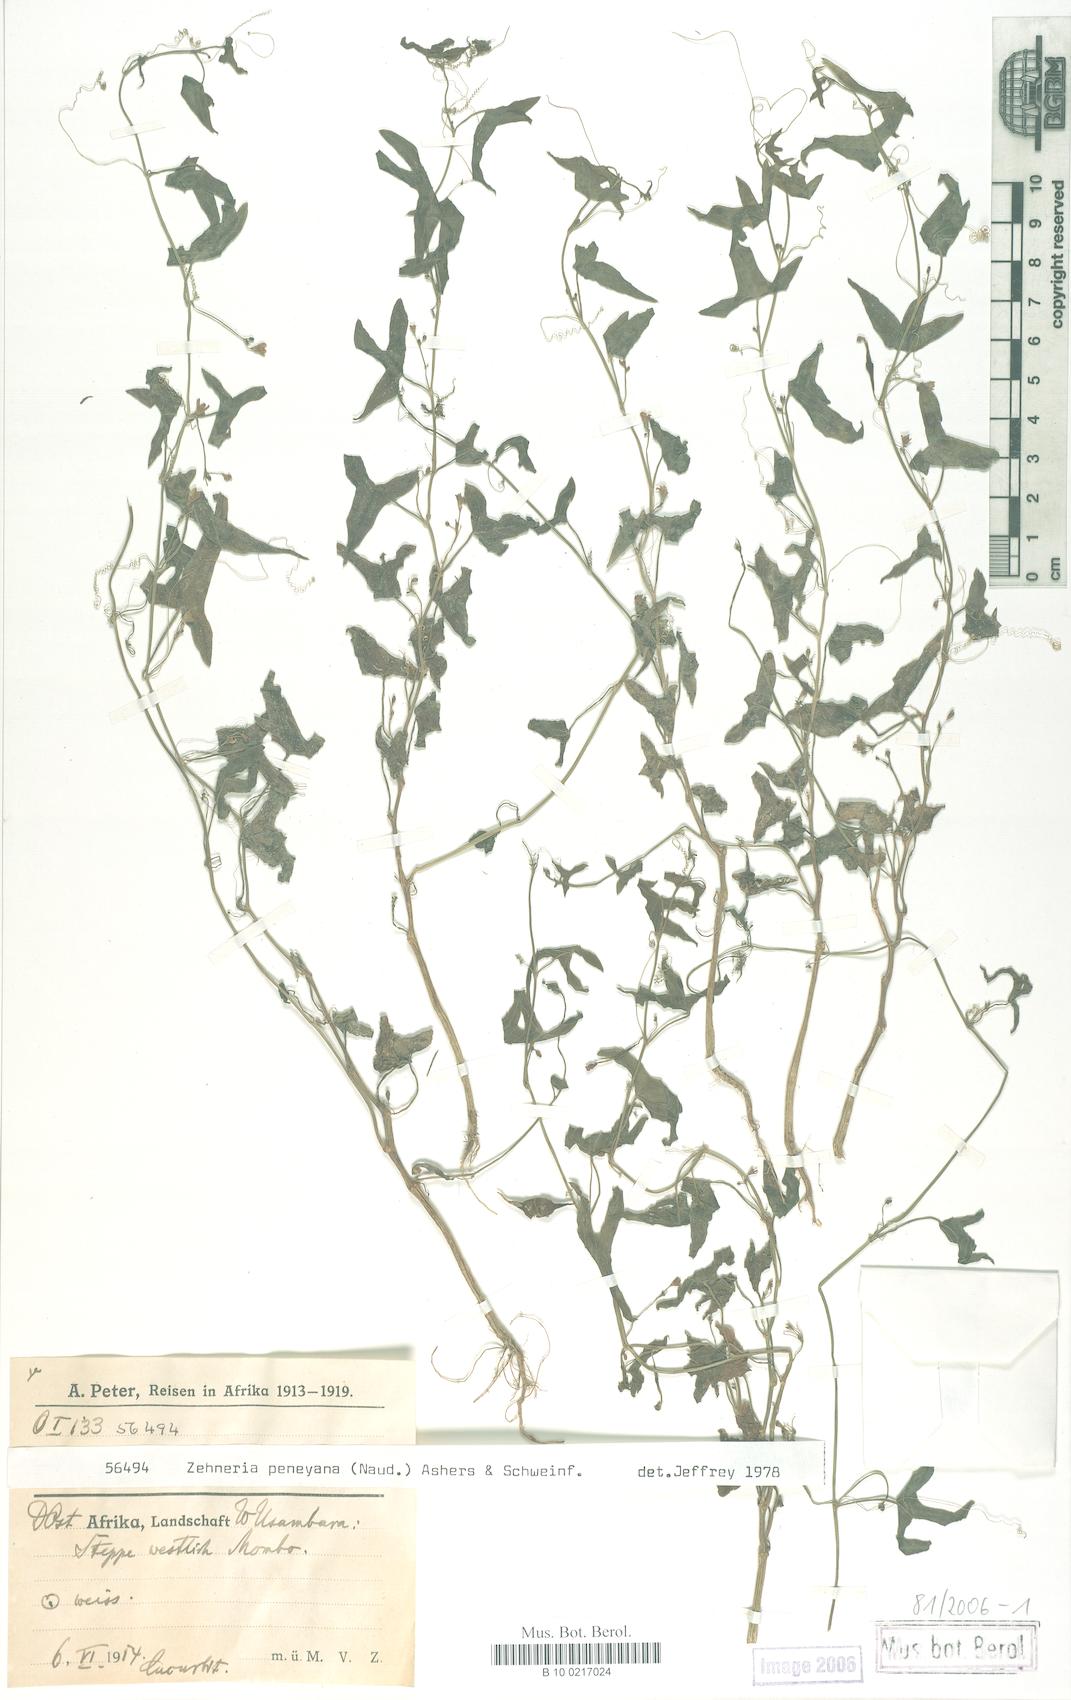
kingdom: Plantae
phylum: Tracheophyta
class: Magnoliopsida
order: Cucurbitales
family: Cucurbitaceae
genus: Zehneria
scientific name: Zehneria peneyana
